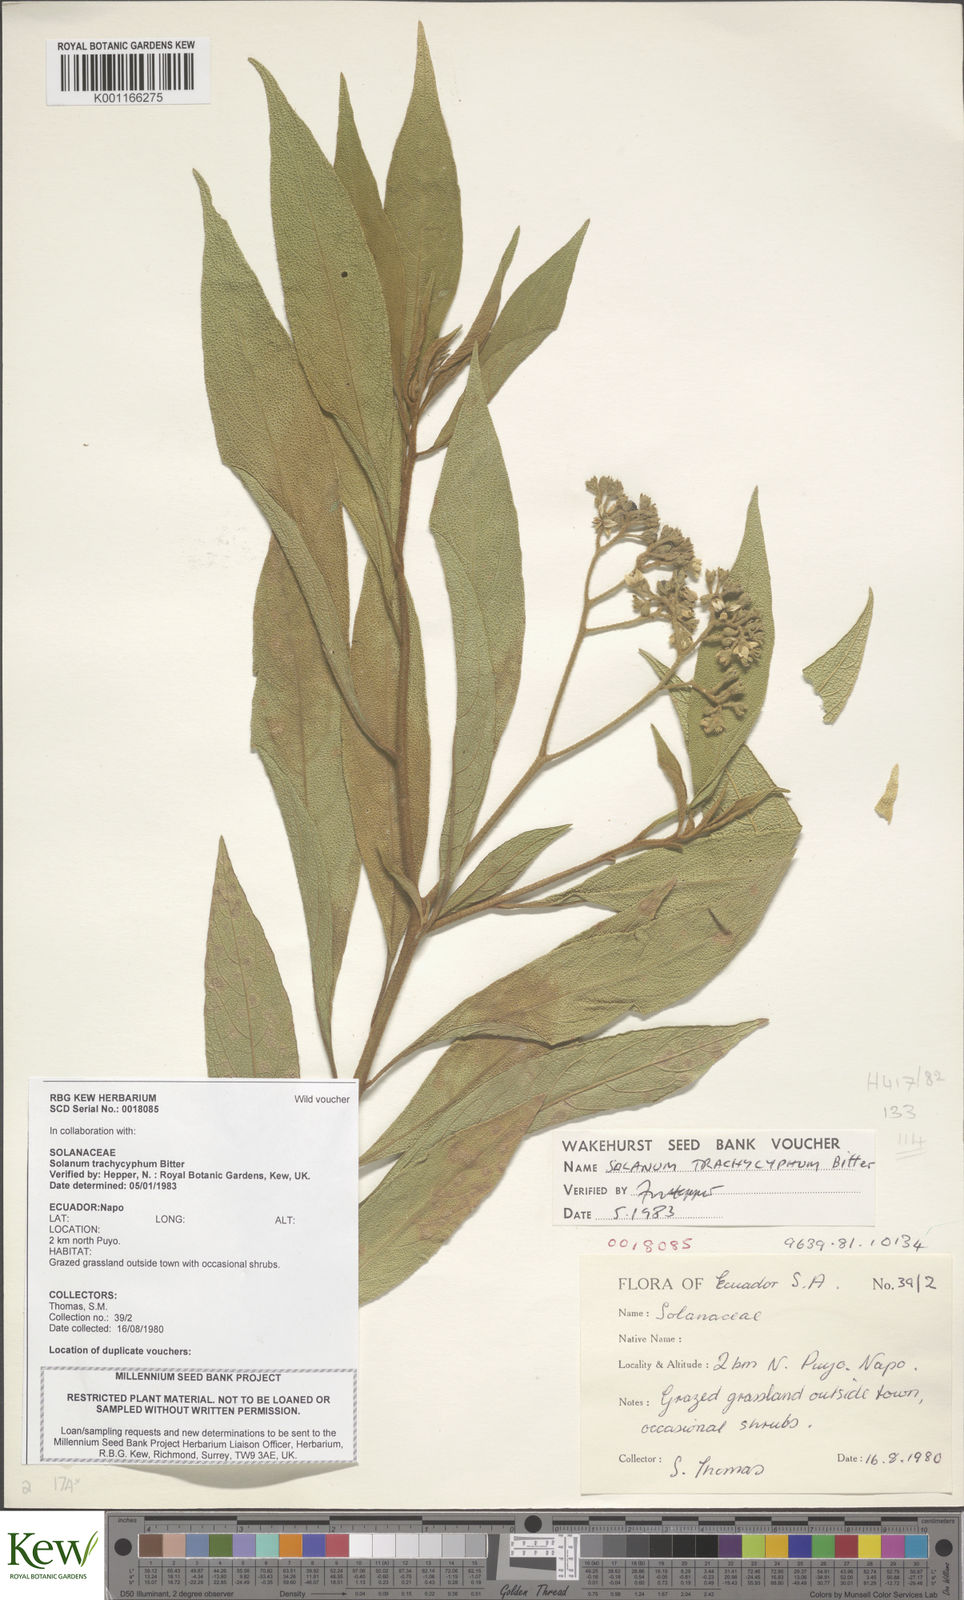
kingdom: Plantae
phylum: Tracheophyta
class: Magnoliopsida
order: Solanales
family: Solanaceae
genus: Solanum
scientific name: Solanum trachycyphum
